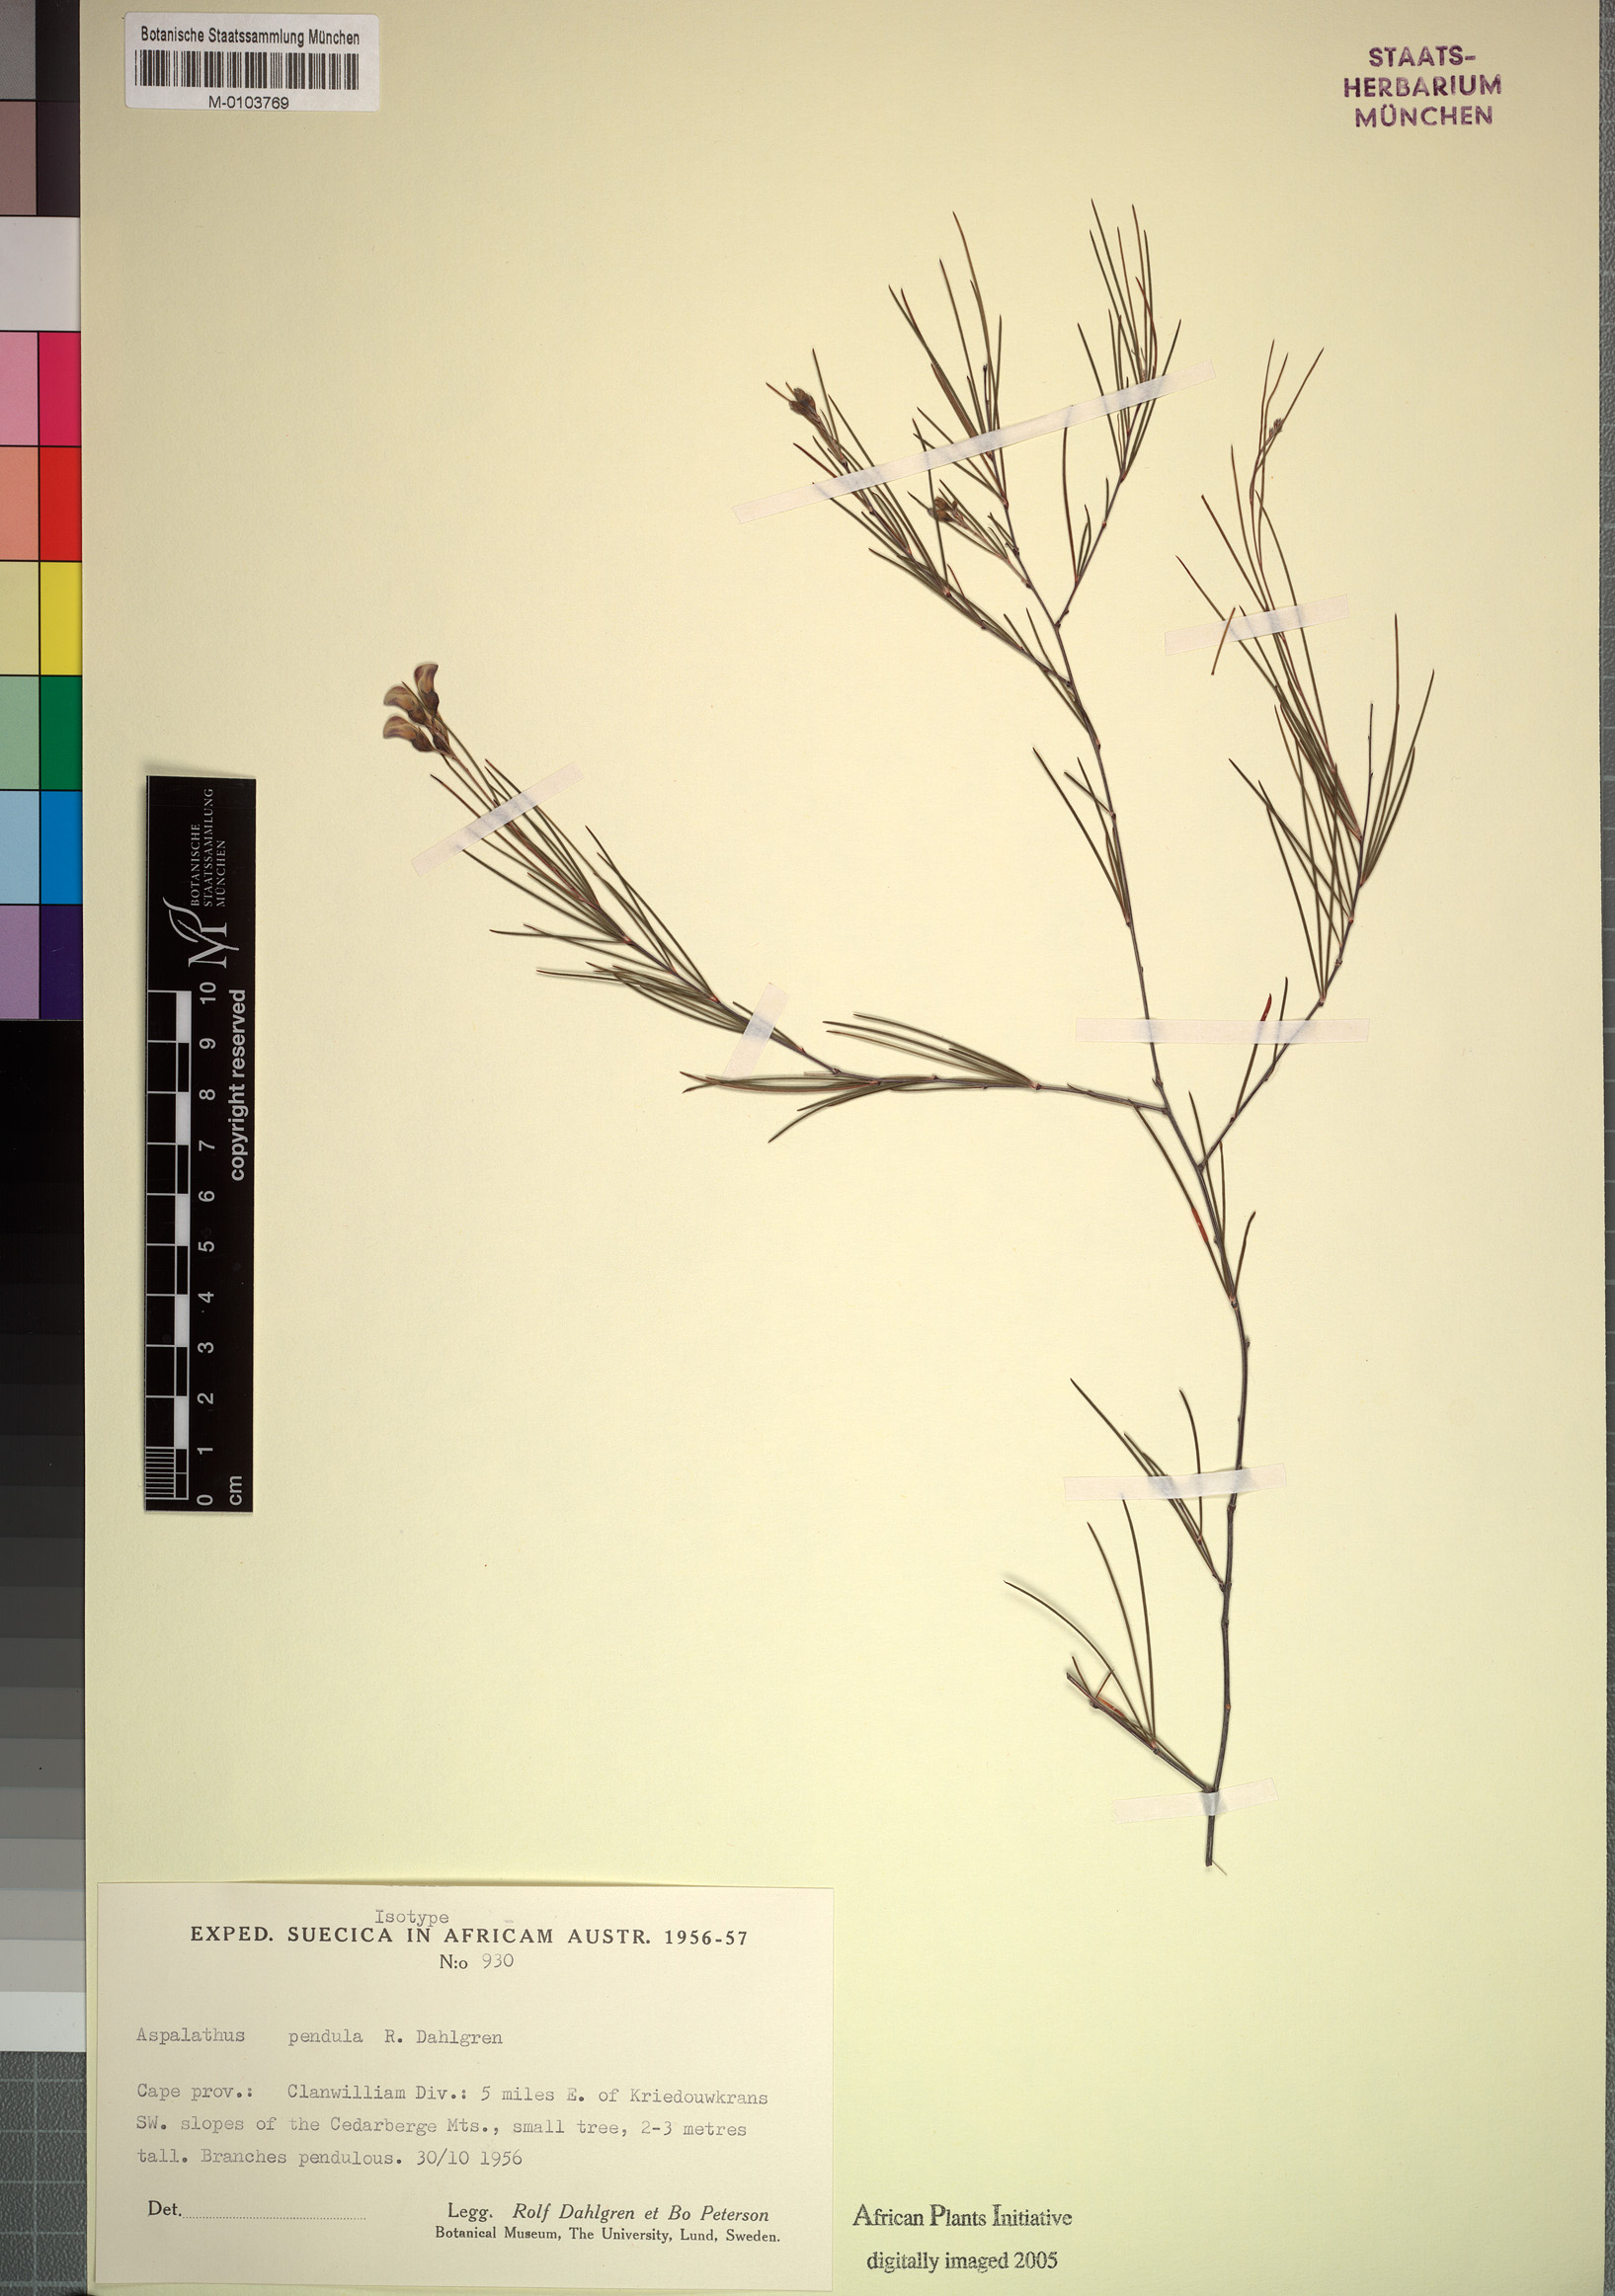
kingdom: Plantae
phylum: Tracheophyta
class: Magnoliopsida
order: Fabales
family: Fabaceae
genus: Aspalathus
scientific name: Aspalathus pendula
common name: Golden tea
